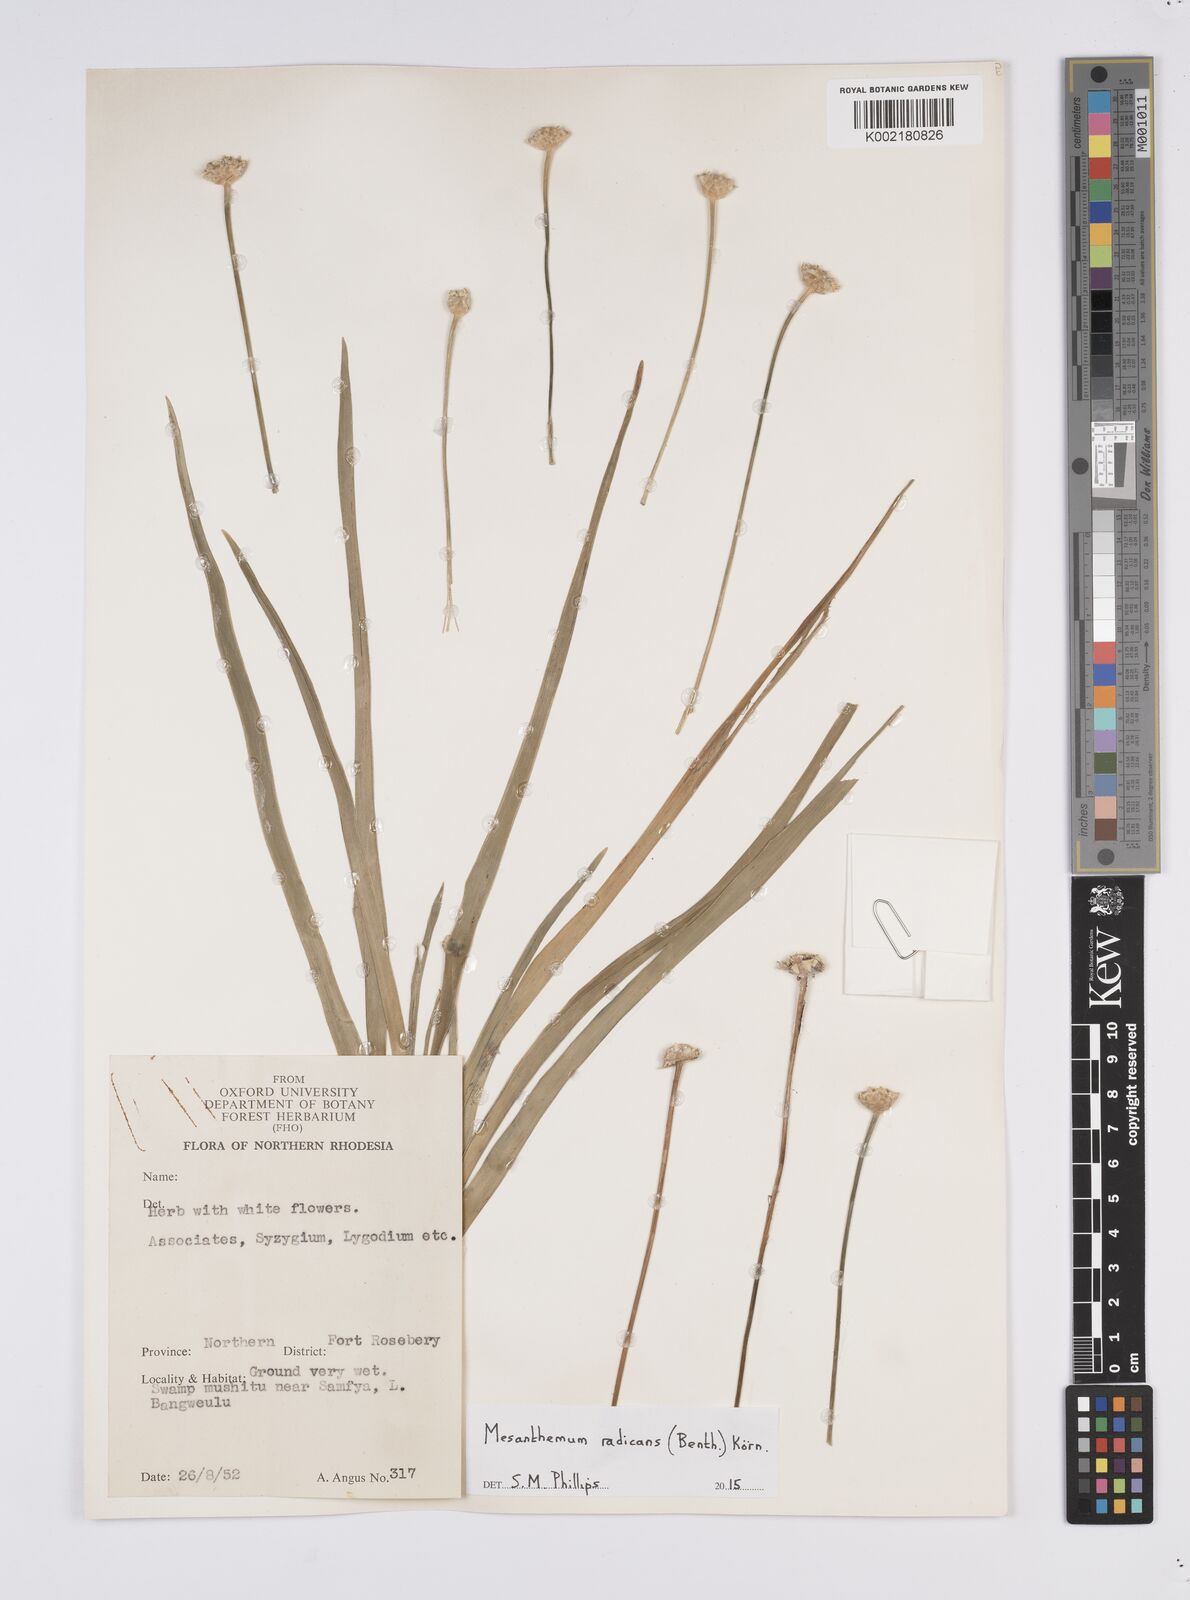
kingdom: Plantae
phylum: Tracheophyta
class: Liliopsida
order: Poales
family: Eriocaulaceae
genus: Mesanthemum
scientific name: Mesanthemum radicans
